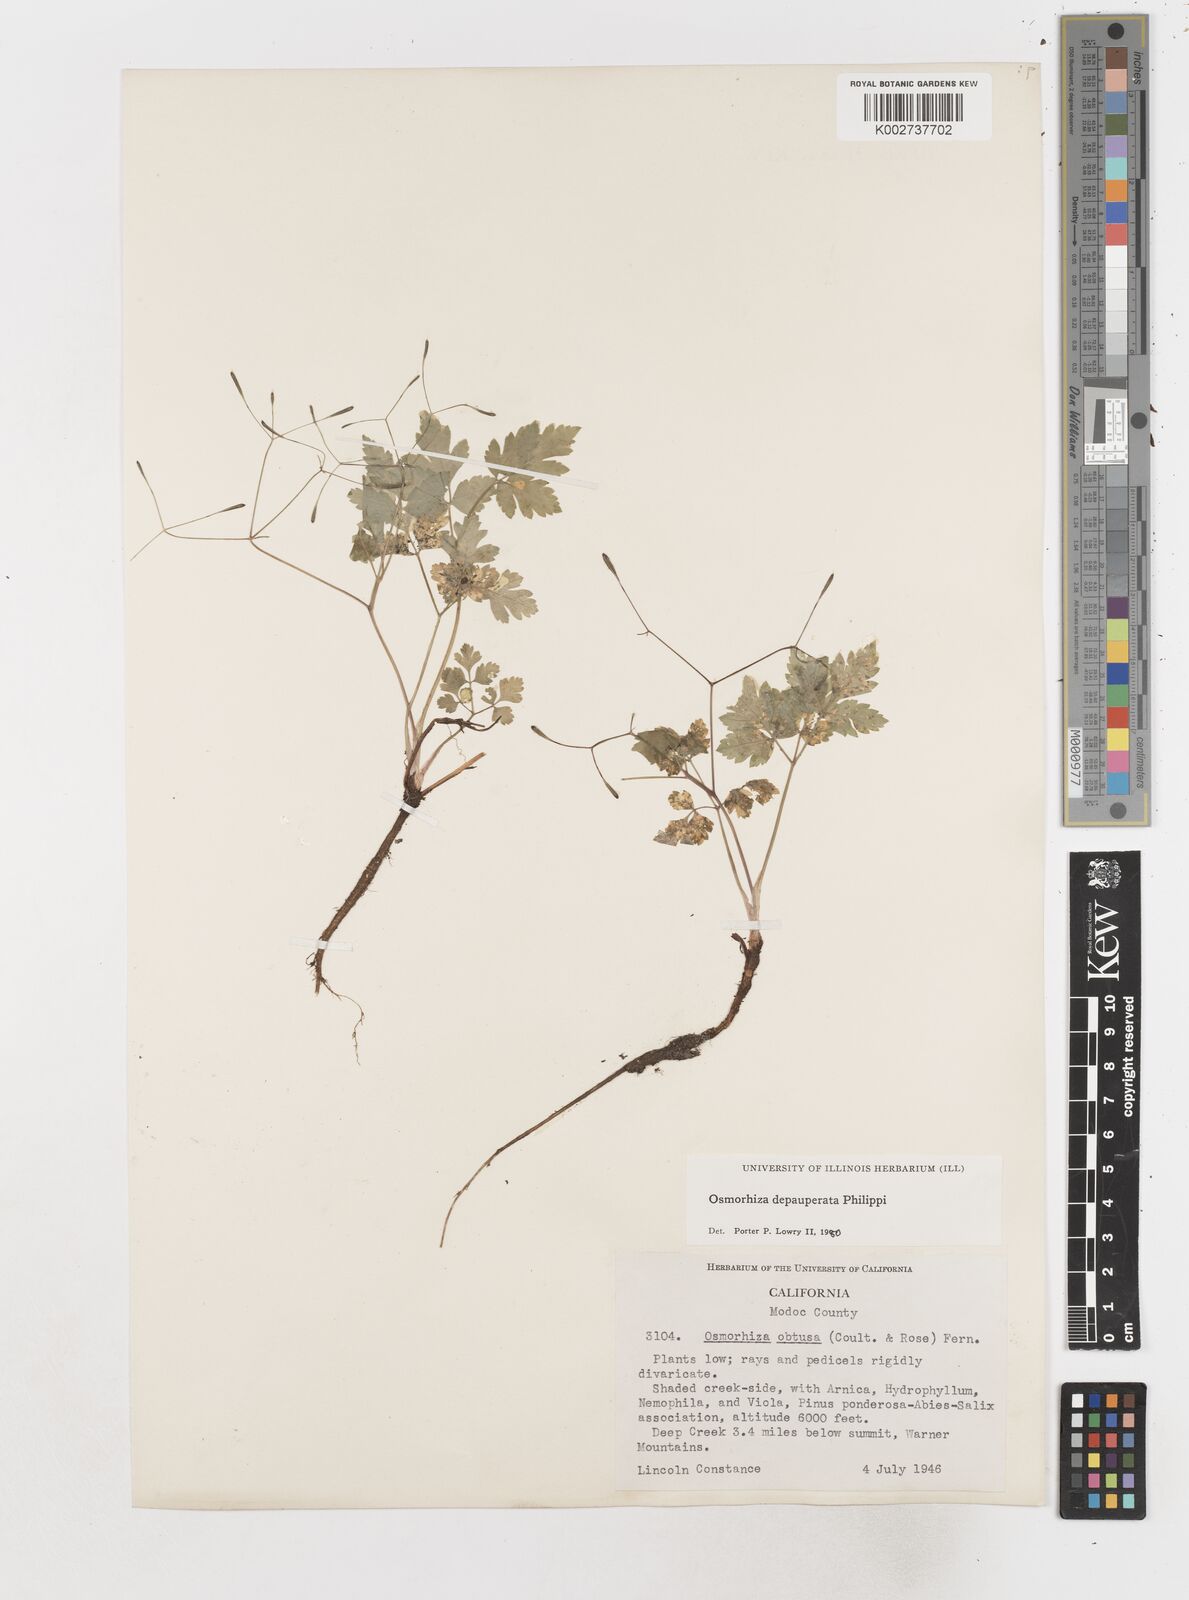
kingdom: Plantae
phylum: Tracheophyta
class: Magnoliopsida
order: Apiales
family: Apiaceae
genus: Osmorhiza
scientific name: Osmorhiza depauperata
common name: Blunt sweet cicely
